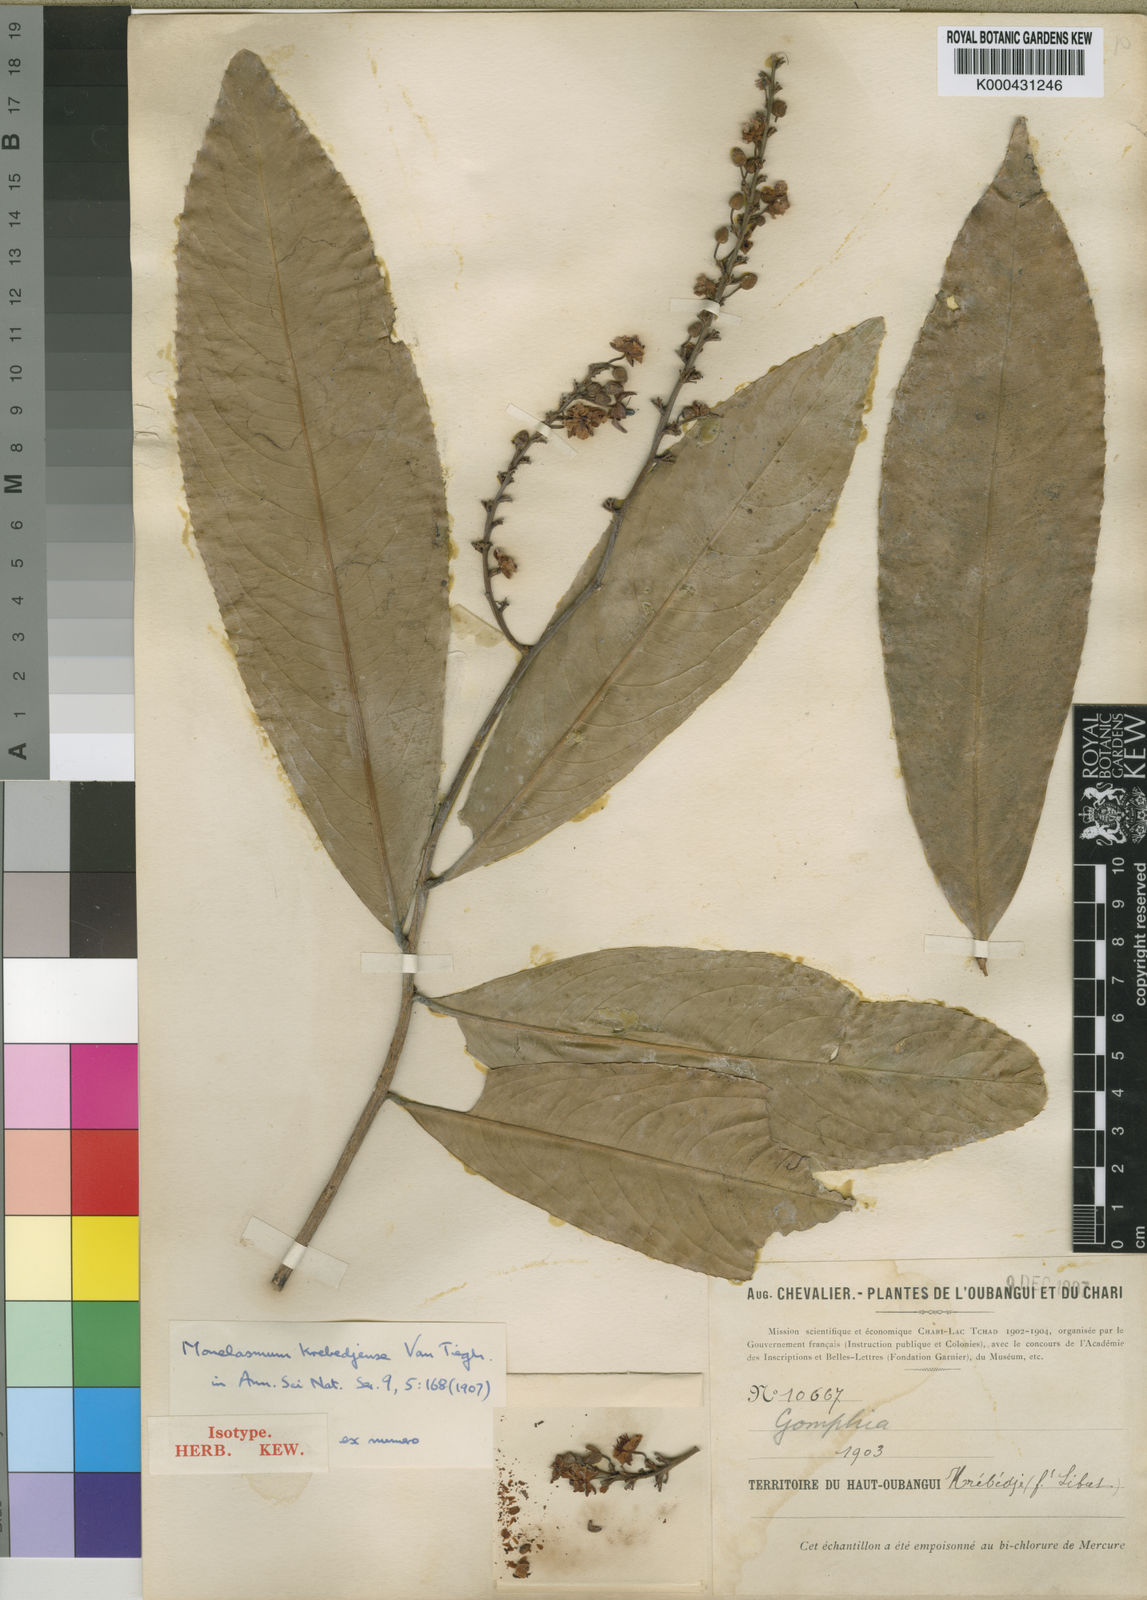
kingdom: Plantae
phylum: Tracheophyta
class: Magnoliopsida
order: Malpighiales
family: Ochnaceae
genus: Campylospermum
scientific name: Campylospermum flavum
